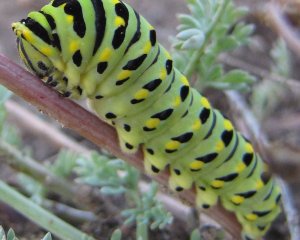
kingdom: Animalia
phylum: Arthropoda
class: Insecta
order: Lepidoptera
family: Papilionidae
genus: Papilio
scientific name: Papilio zelicaon
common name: Anise Swallowtail
